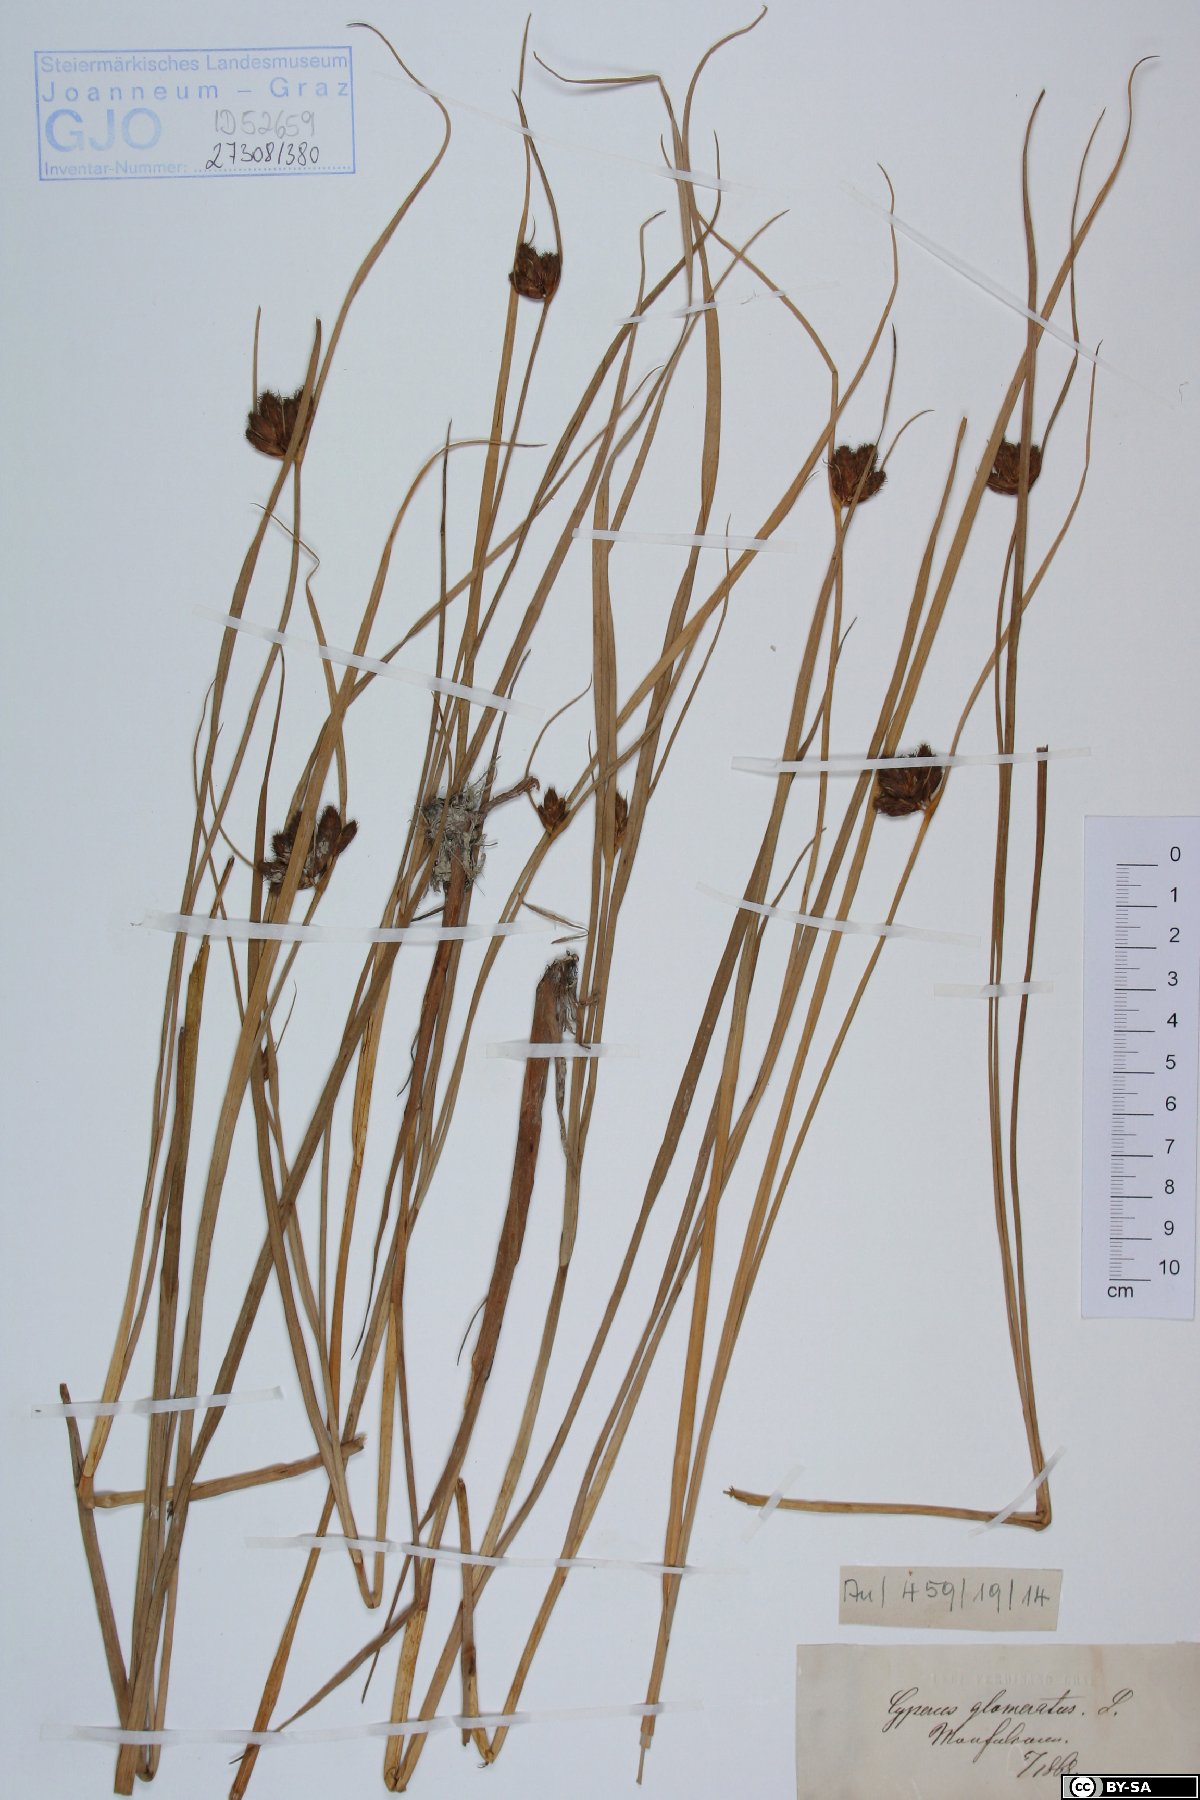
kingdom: Plantae
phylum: Tracheophyta
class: Liliopsida
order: Poales
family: Cyperaceae
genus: Cyperus
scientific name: Cyperus glomeratus
